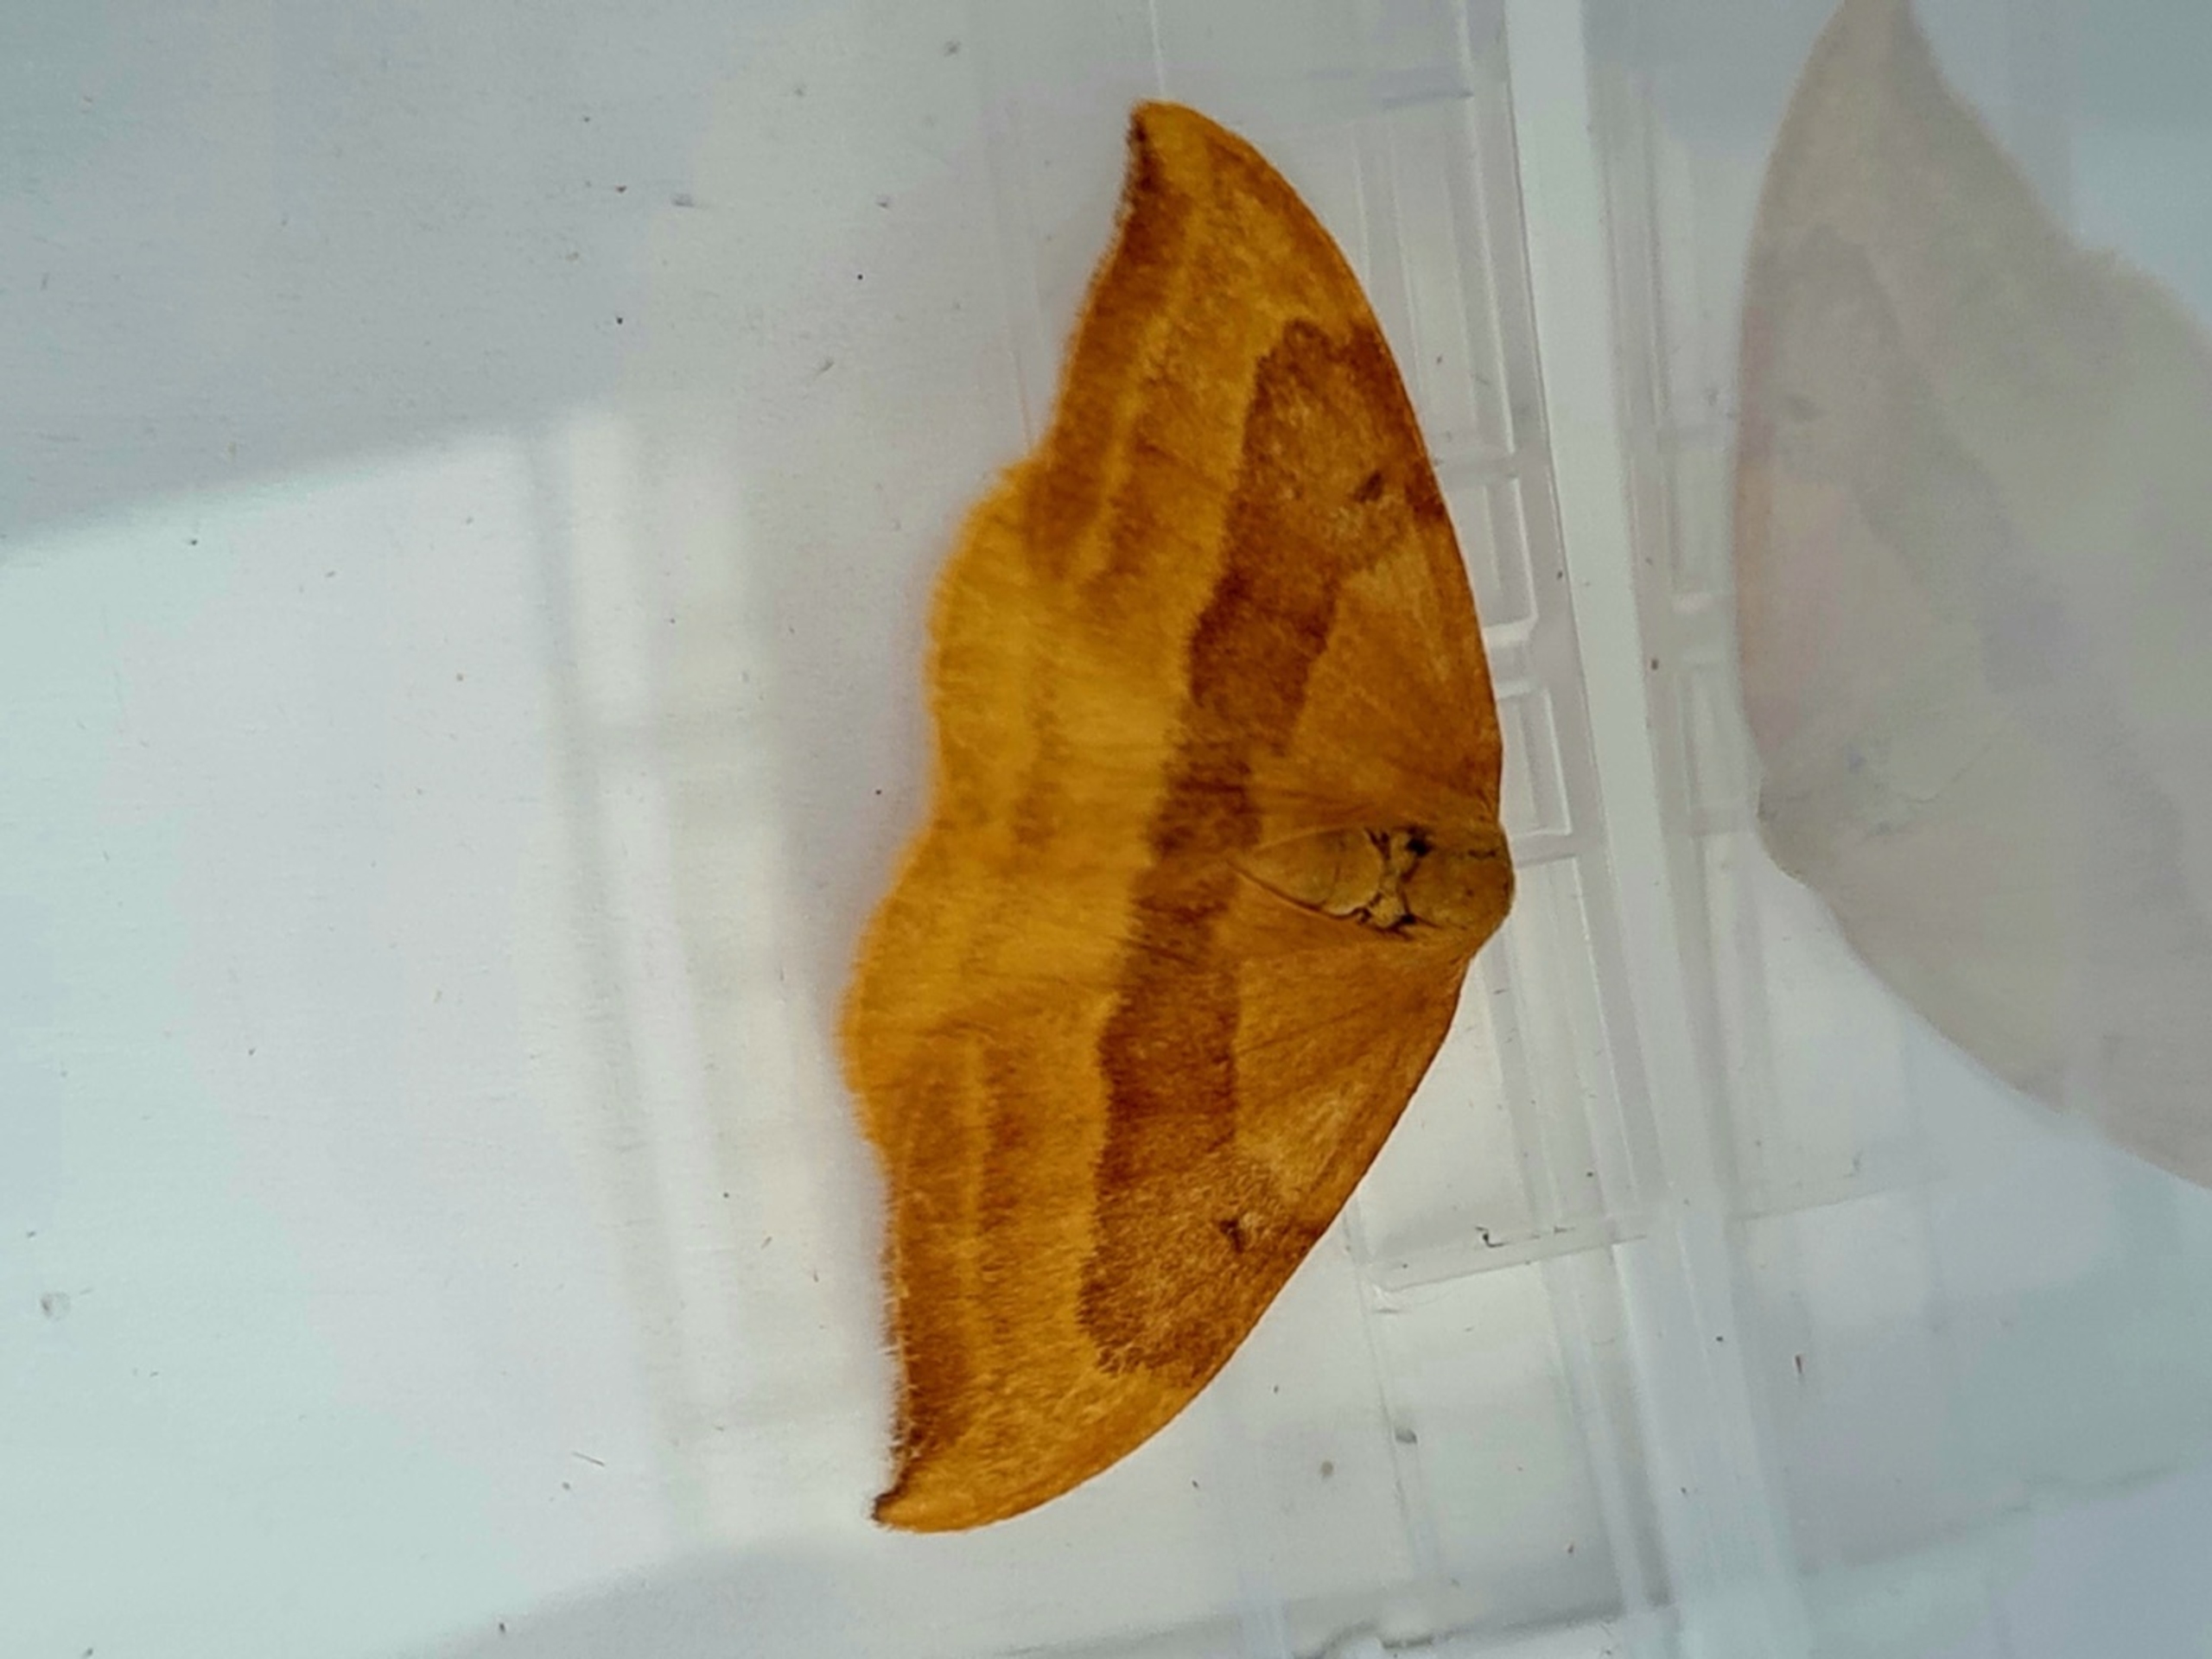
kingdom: Animalia
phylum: Arthropoda
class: Insecta
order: Lepidoptera
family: Drepanidae
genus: Watsonalla
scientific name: Watsonalla cultraria
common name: Bøgeseglvinge
